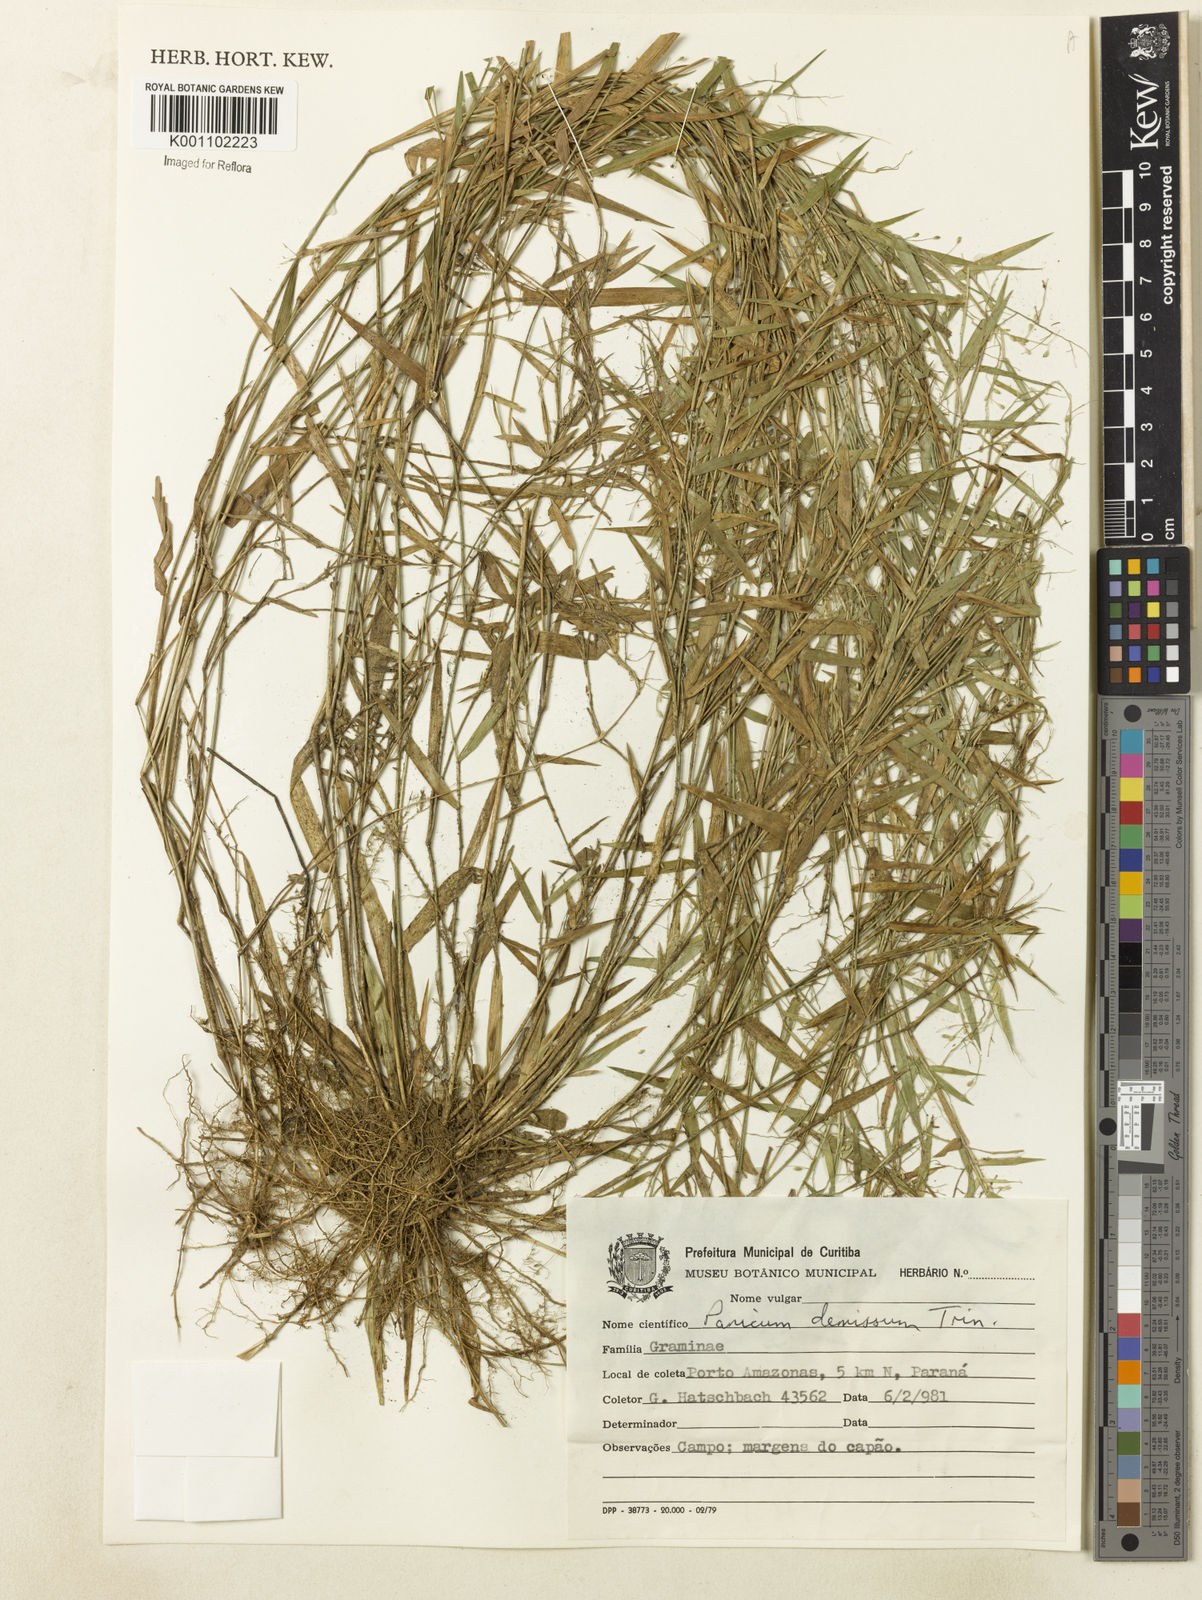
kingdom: Plantae
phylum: Tracheophyta
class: Liliopsida
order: Poales
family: Poaceae
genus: Dichanthelium
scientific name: Dichanthelium sabulorum
